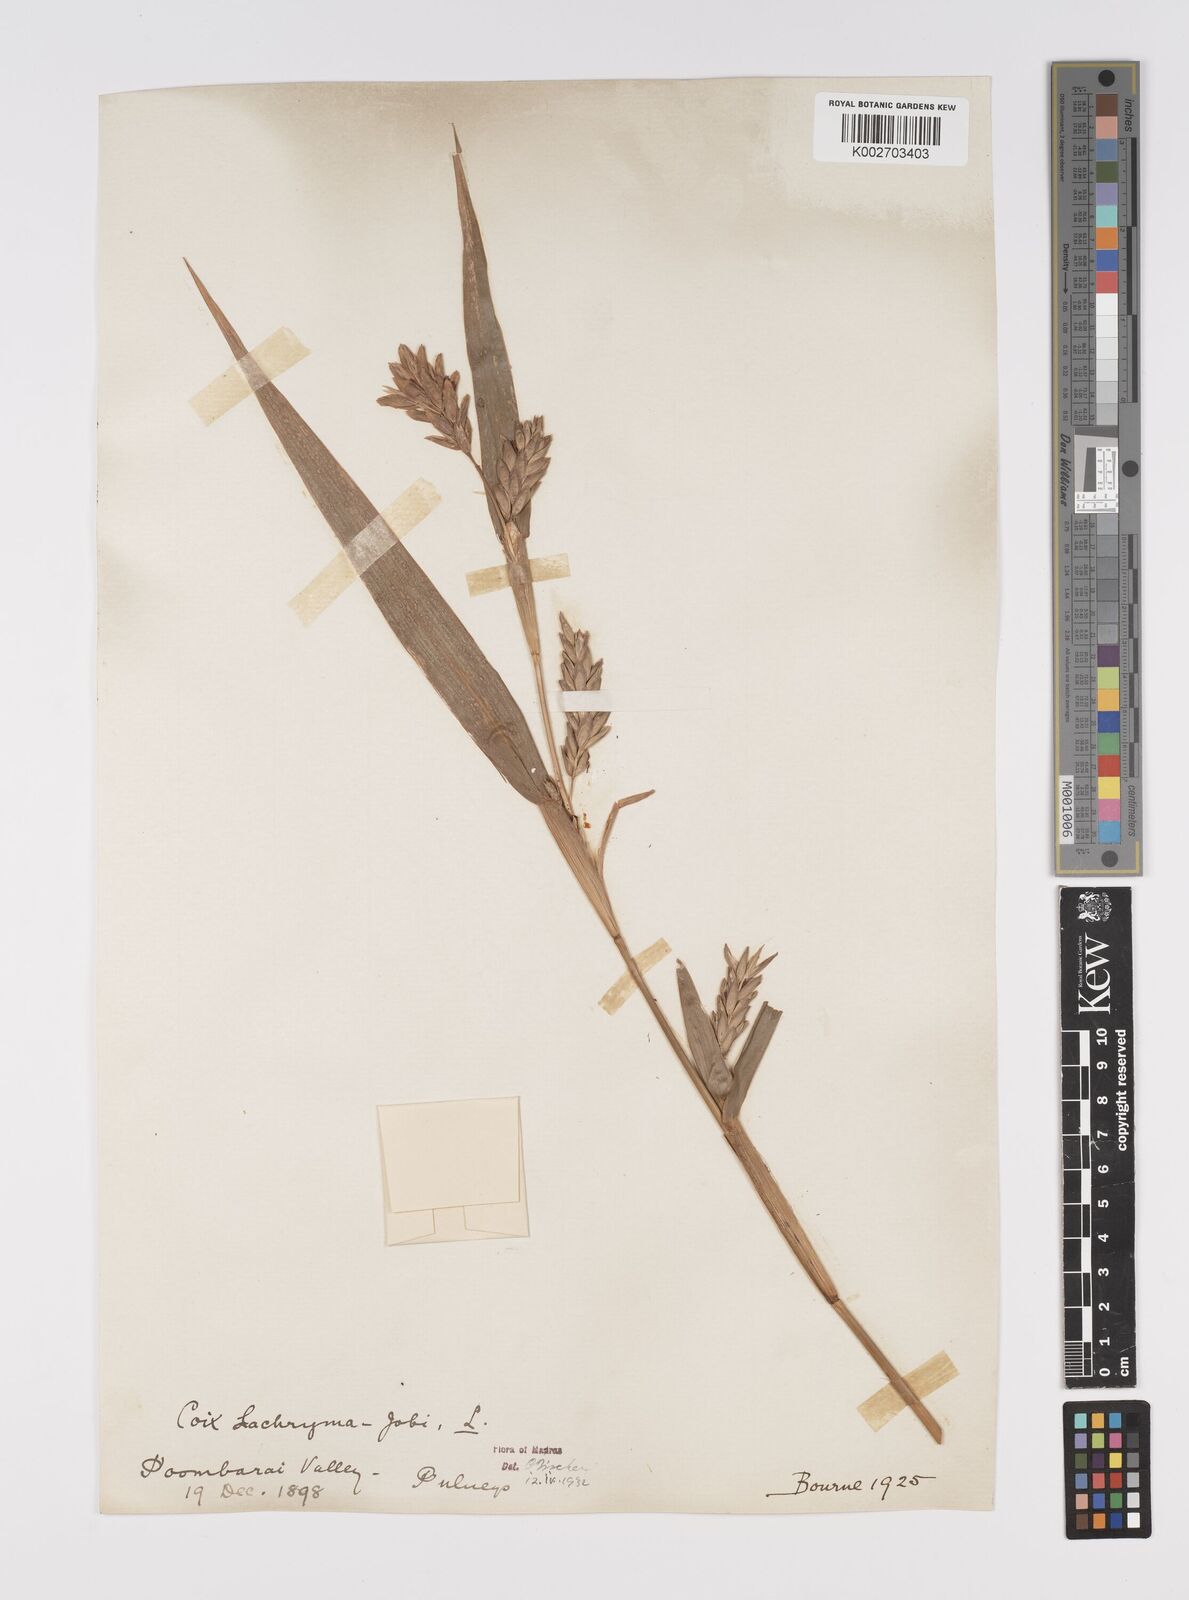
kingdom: Plantae
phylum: Tracheophyta
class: Liliopsida
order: Poales
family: Poaceae
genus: Coix
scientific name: Coix lacryma-jobi
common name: Job's tears
